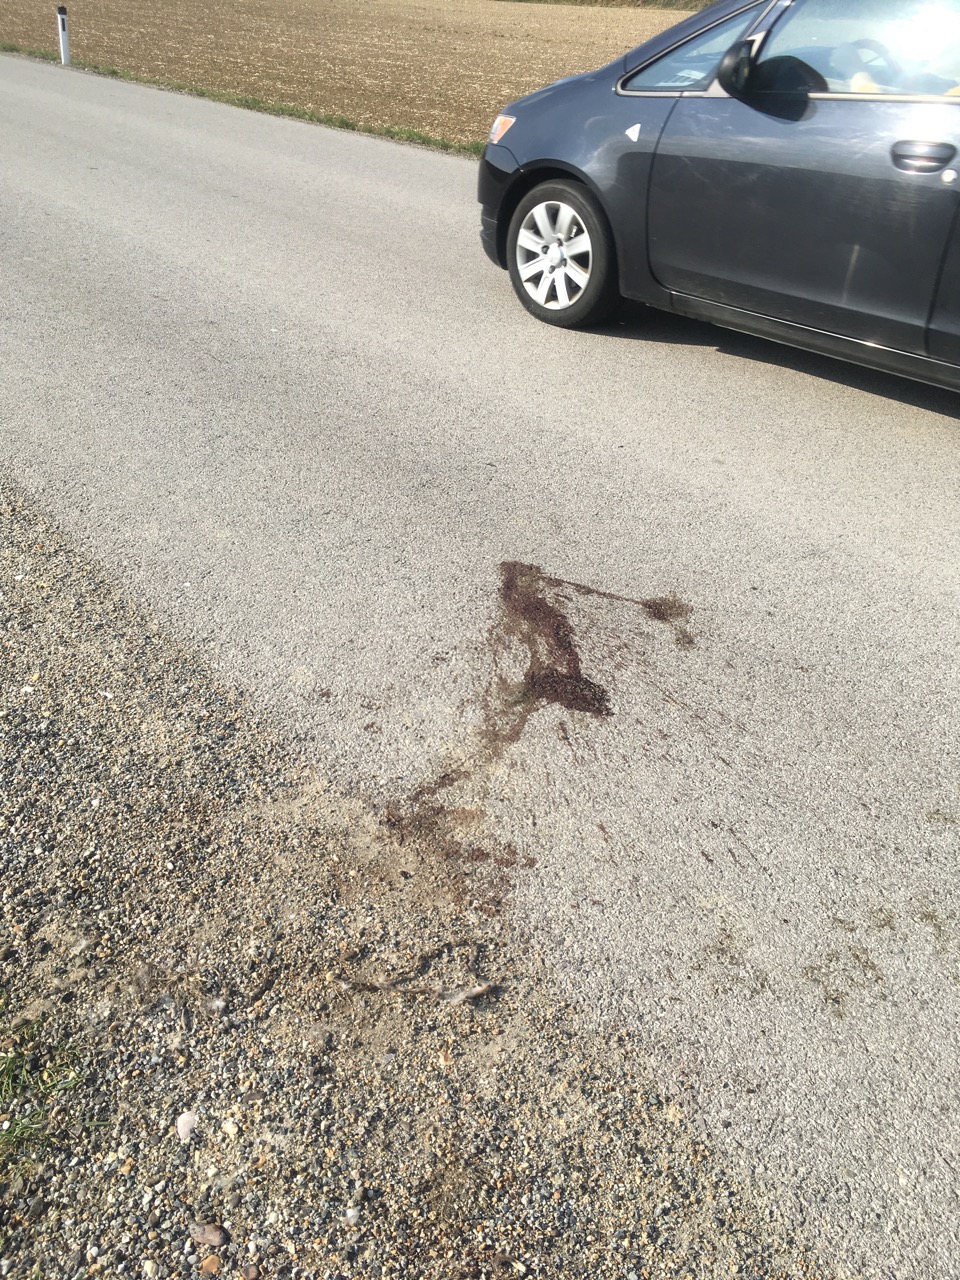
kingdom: Animalia
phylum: Chordata
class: Mammalia
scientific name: Mammalia
